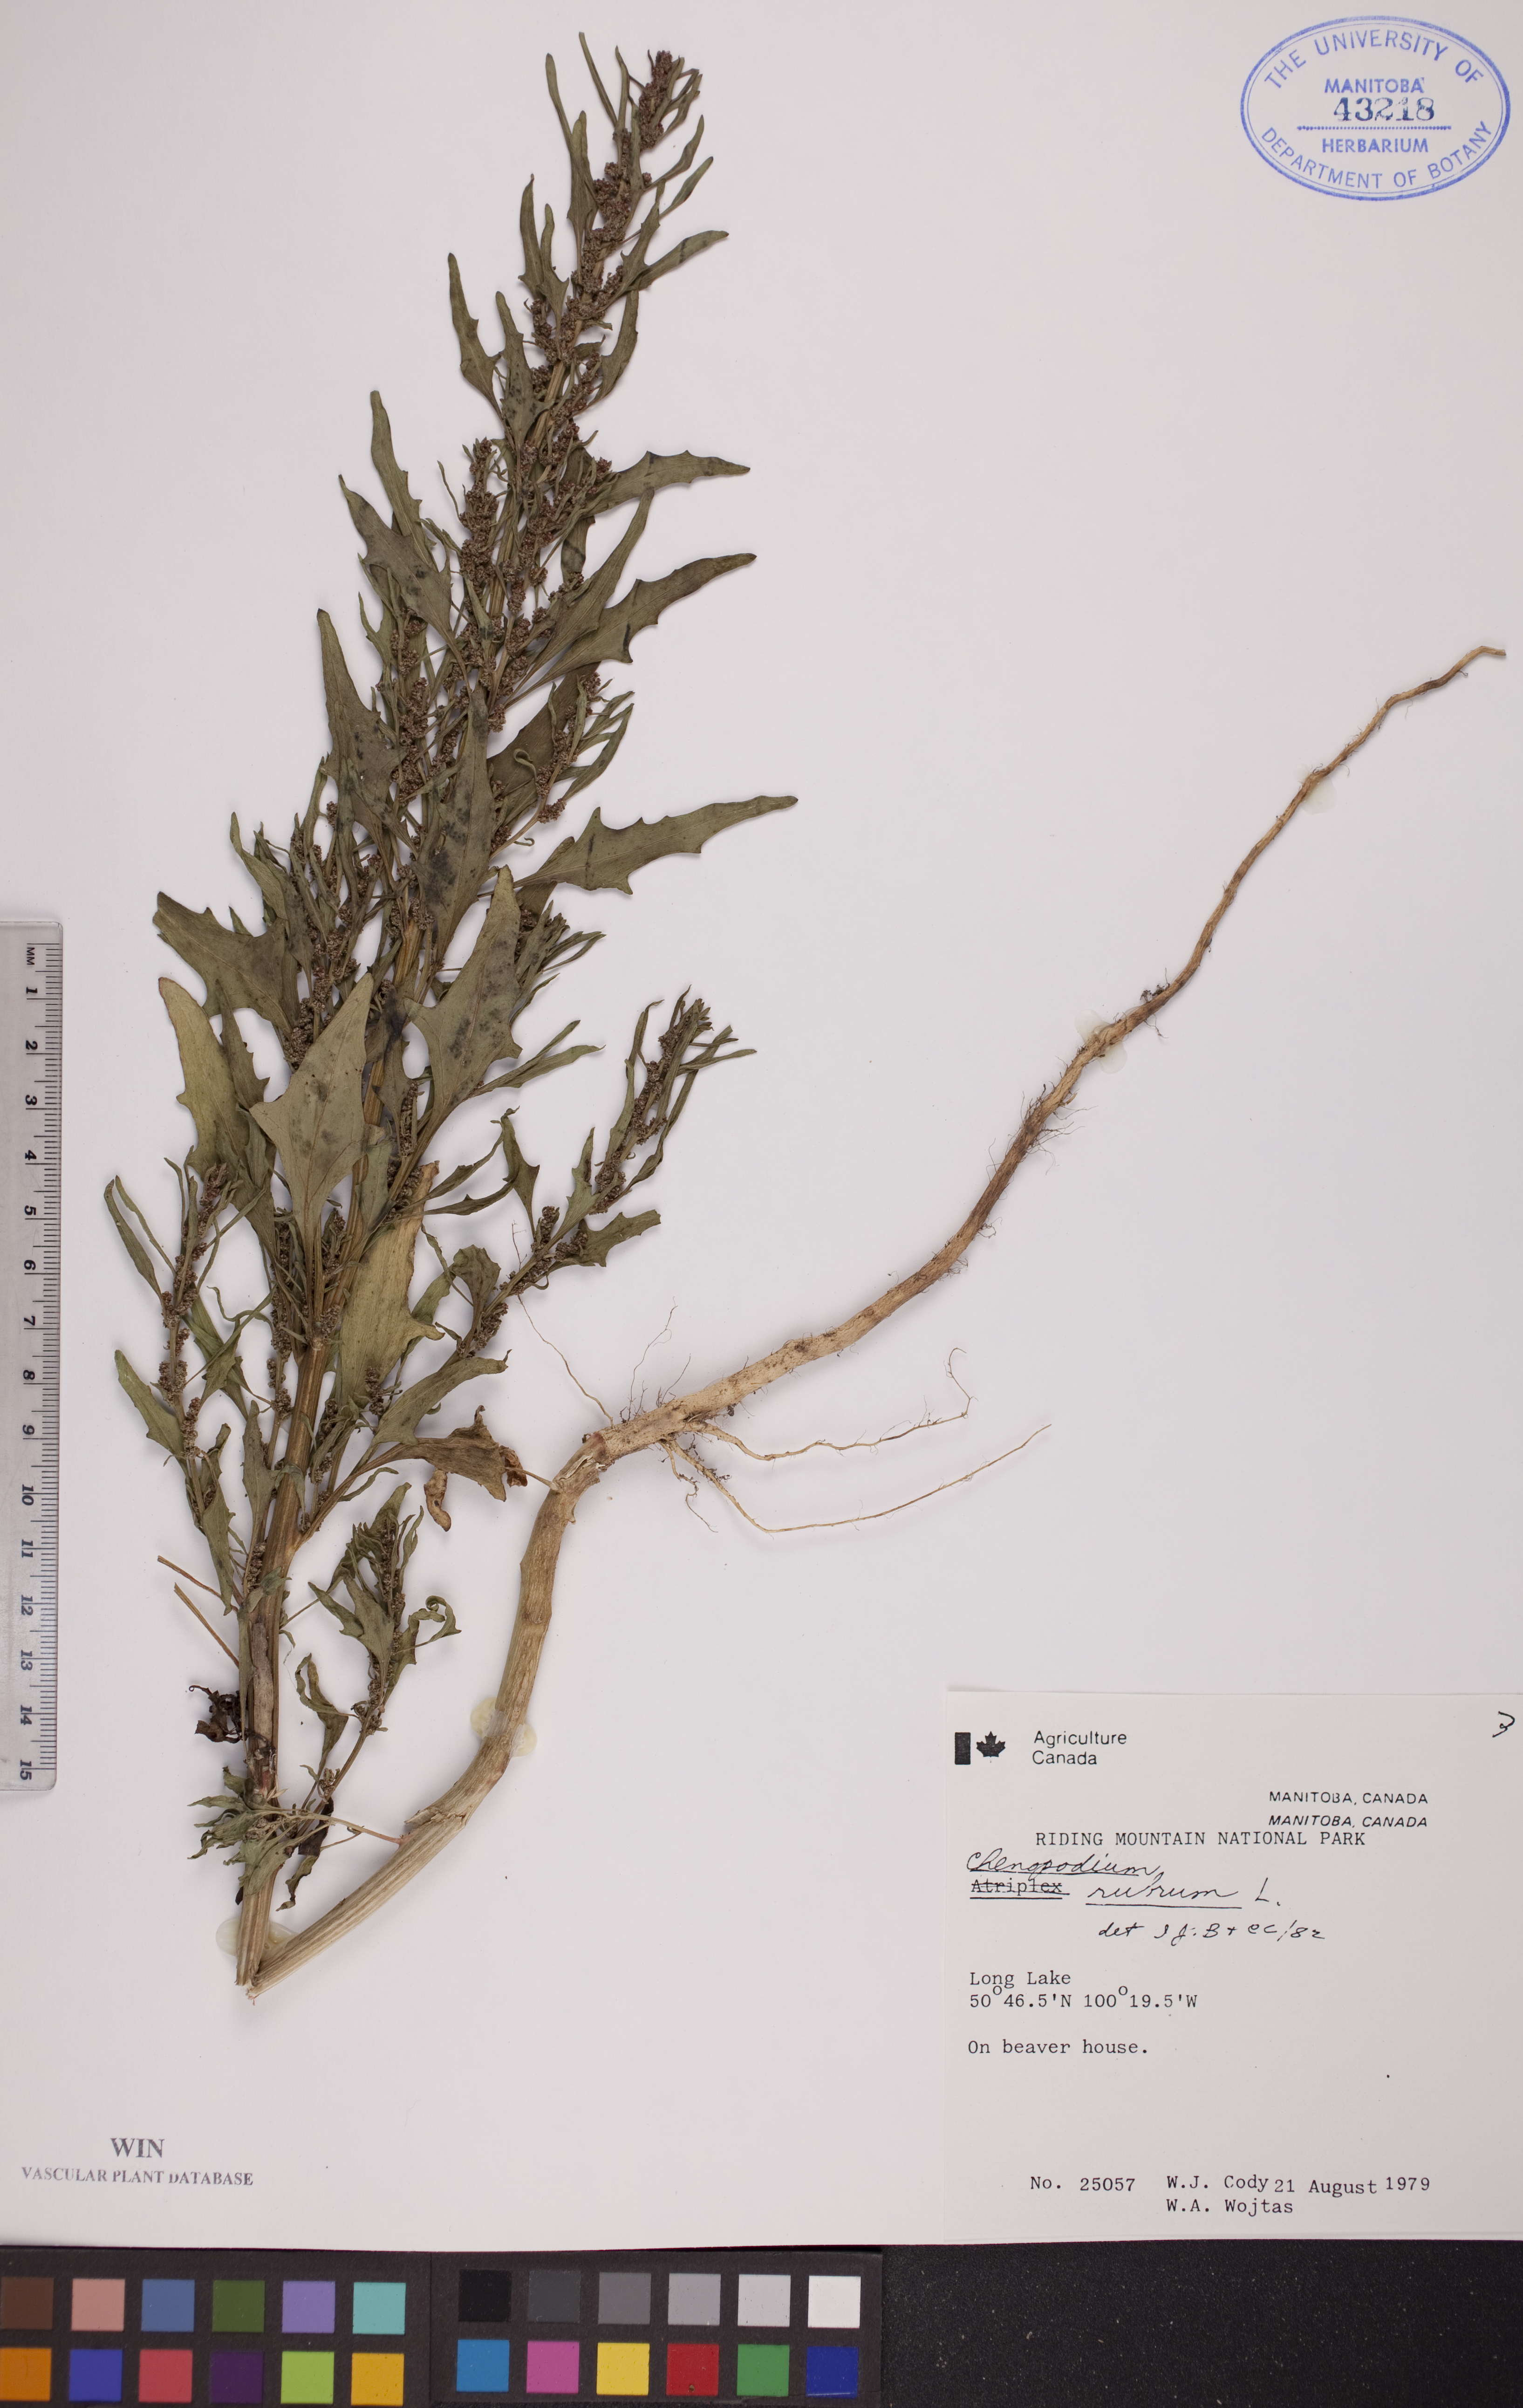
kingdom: Plantae
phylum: Tracheophyta
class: Magnoliopsida
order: Caryophyllales
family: Amaranthaceae
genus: Oxybasis
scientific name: Oxybasis rubra
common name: Red goosefoot
